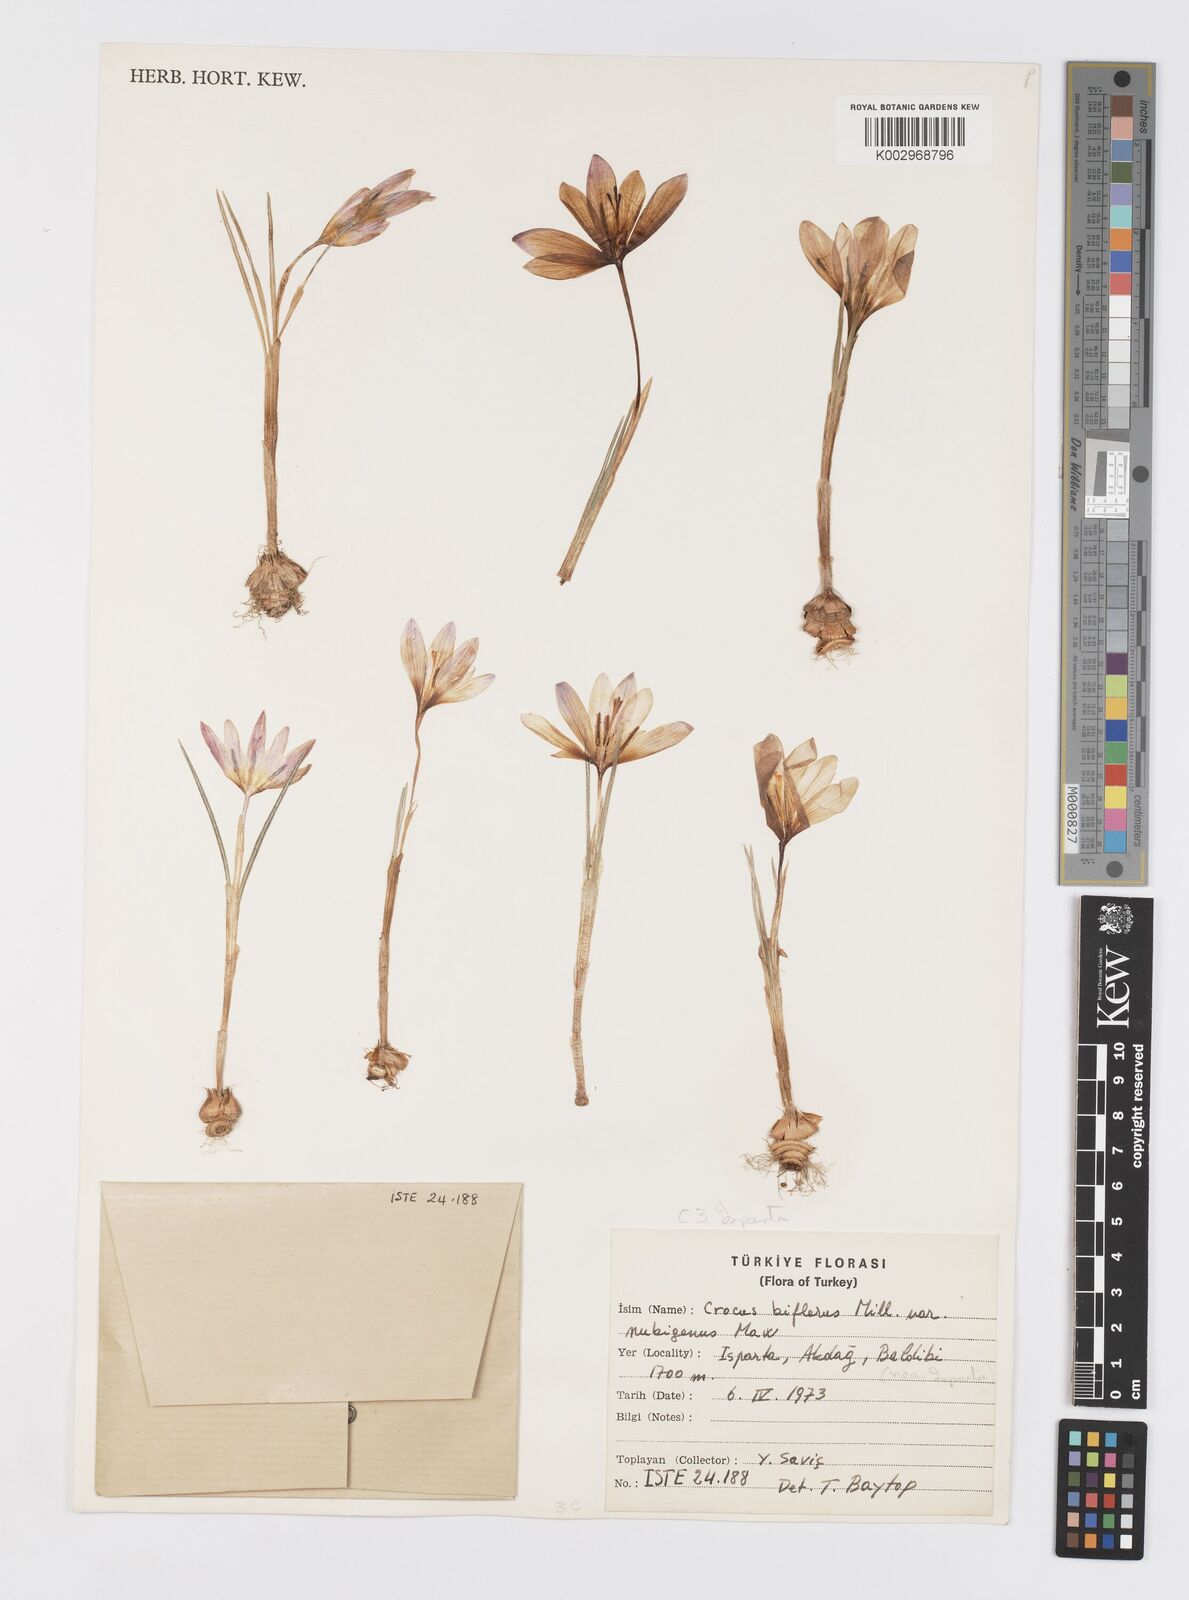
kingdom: Plantae
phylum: Tracheophyta
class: Liliopsida
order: Asparagales
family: Iridaceae
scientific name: Iridaceae
